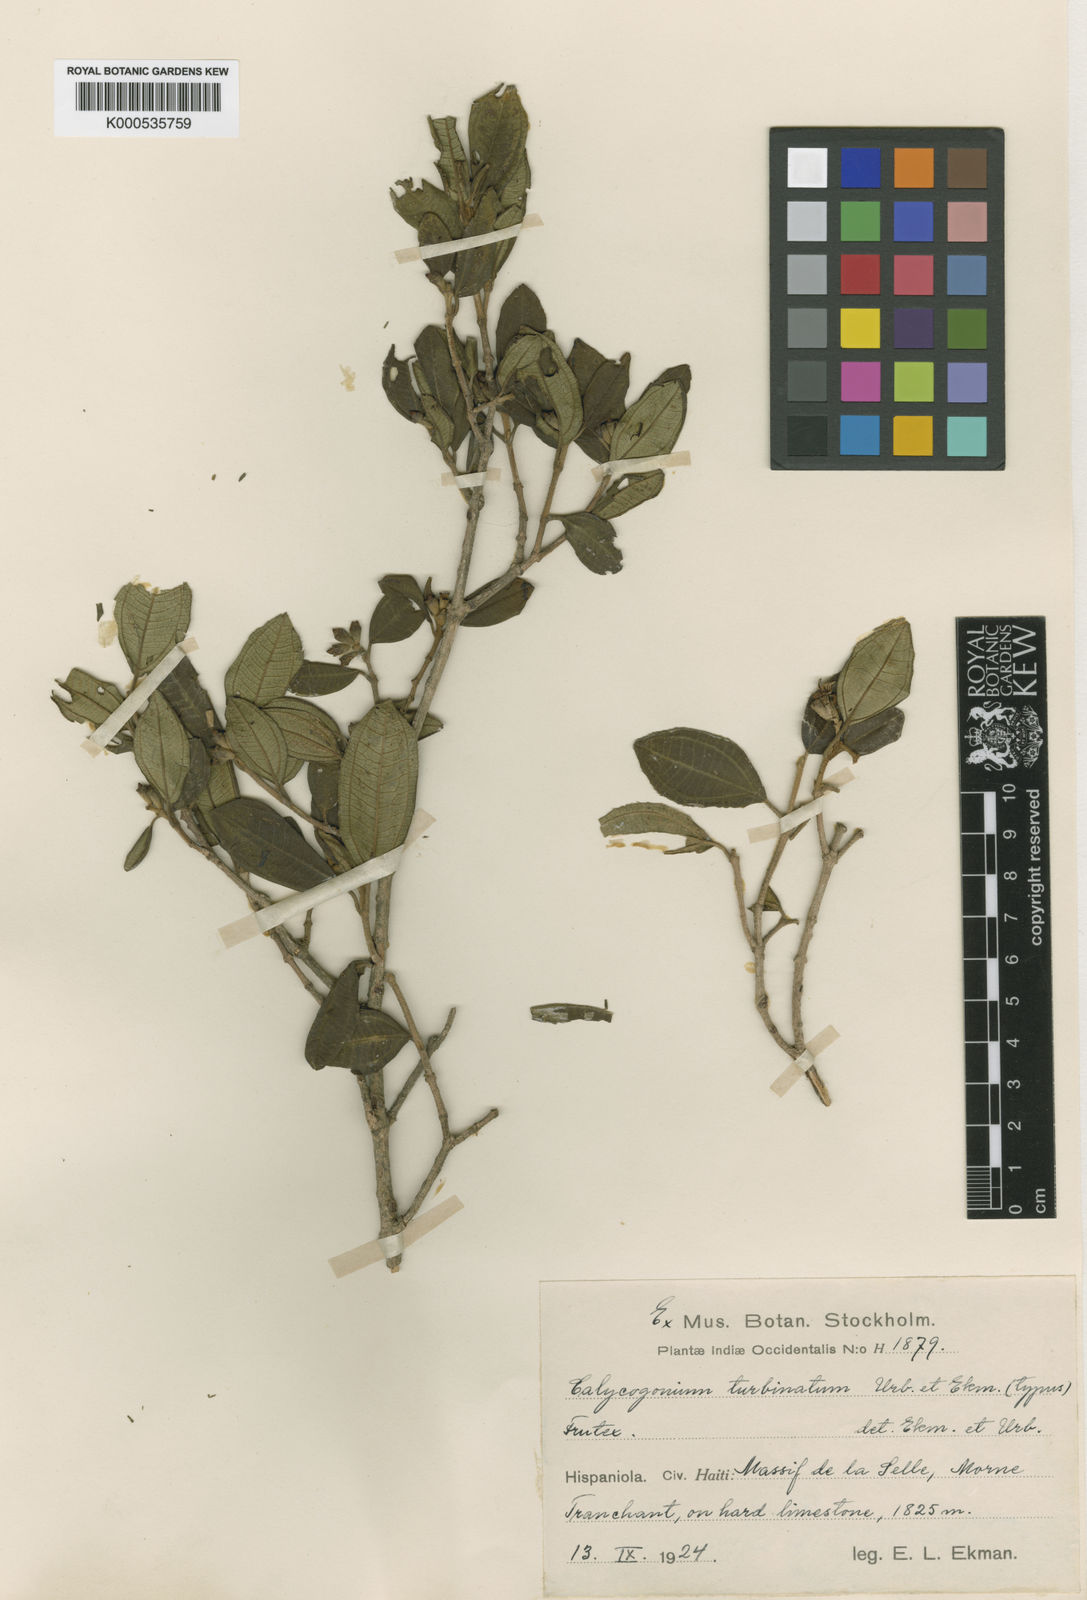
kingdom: Plantae
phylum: Tracheophyta
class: Magnoliopsida
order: Myrtales
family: Melastomataceae
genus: Miconia
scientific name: Miconia turbinata
